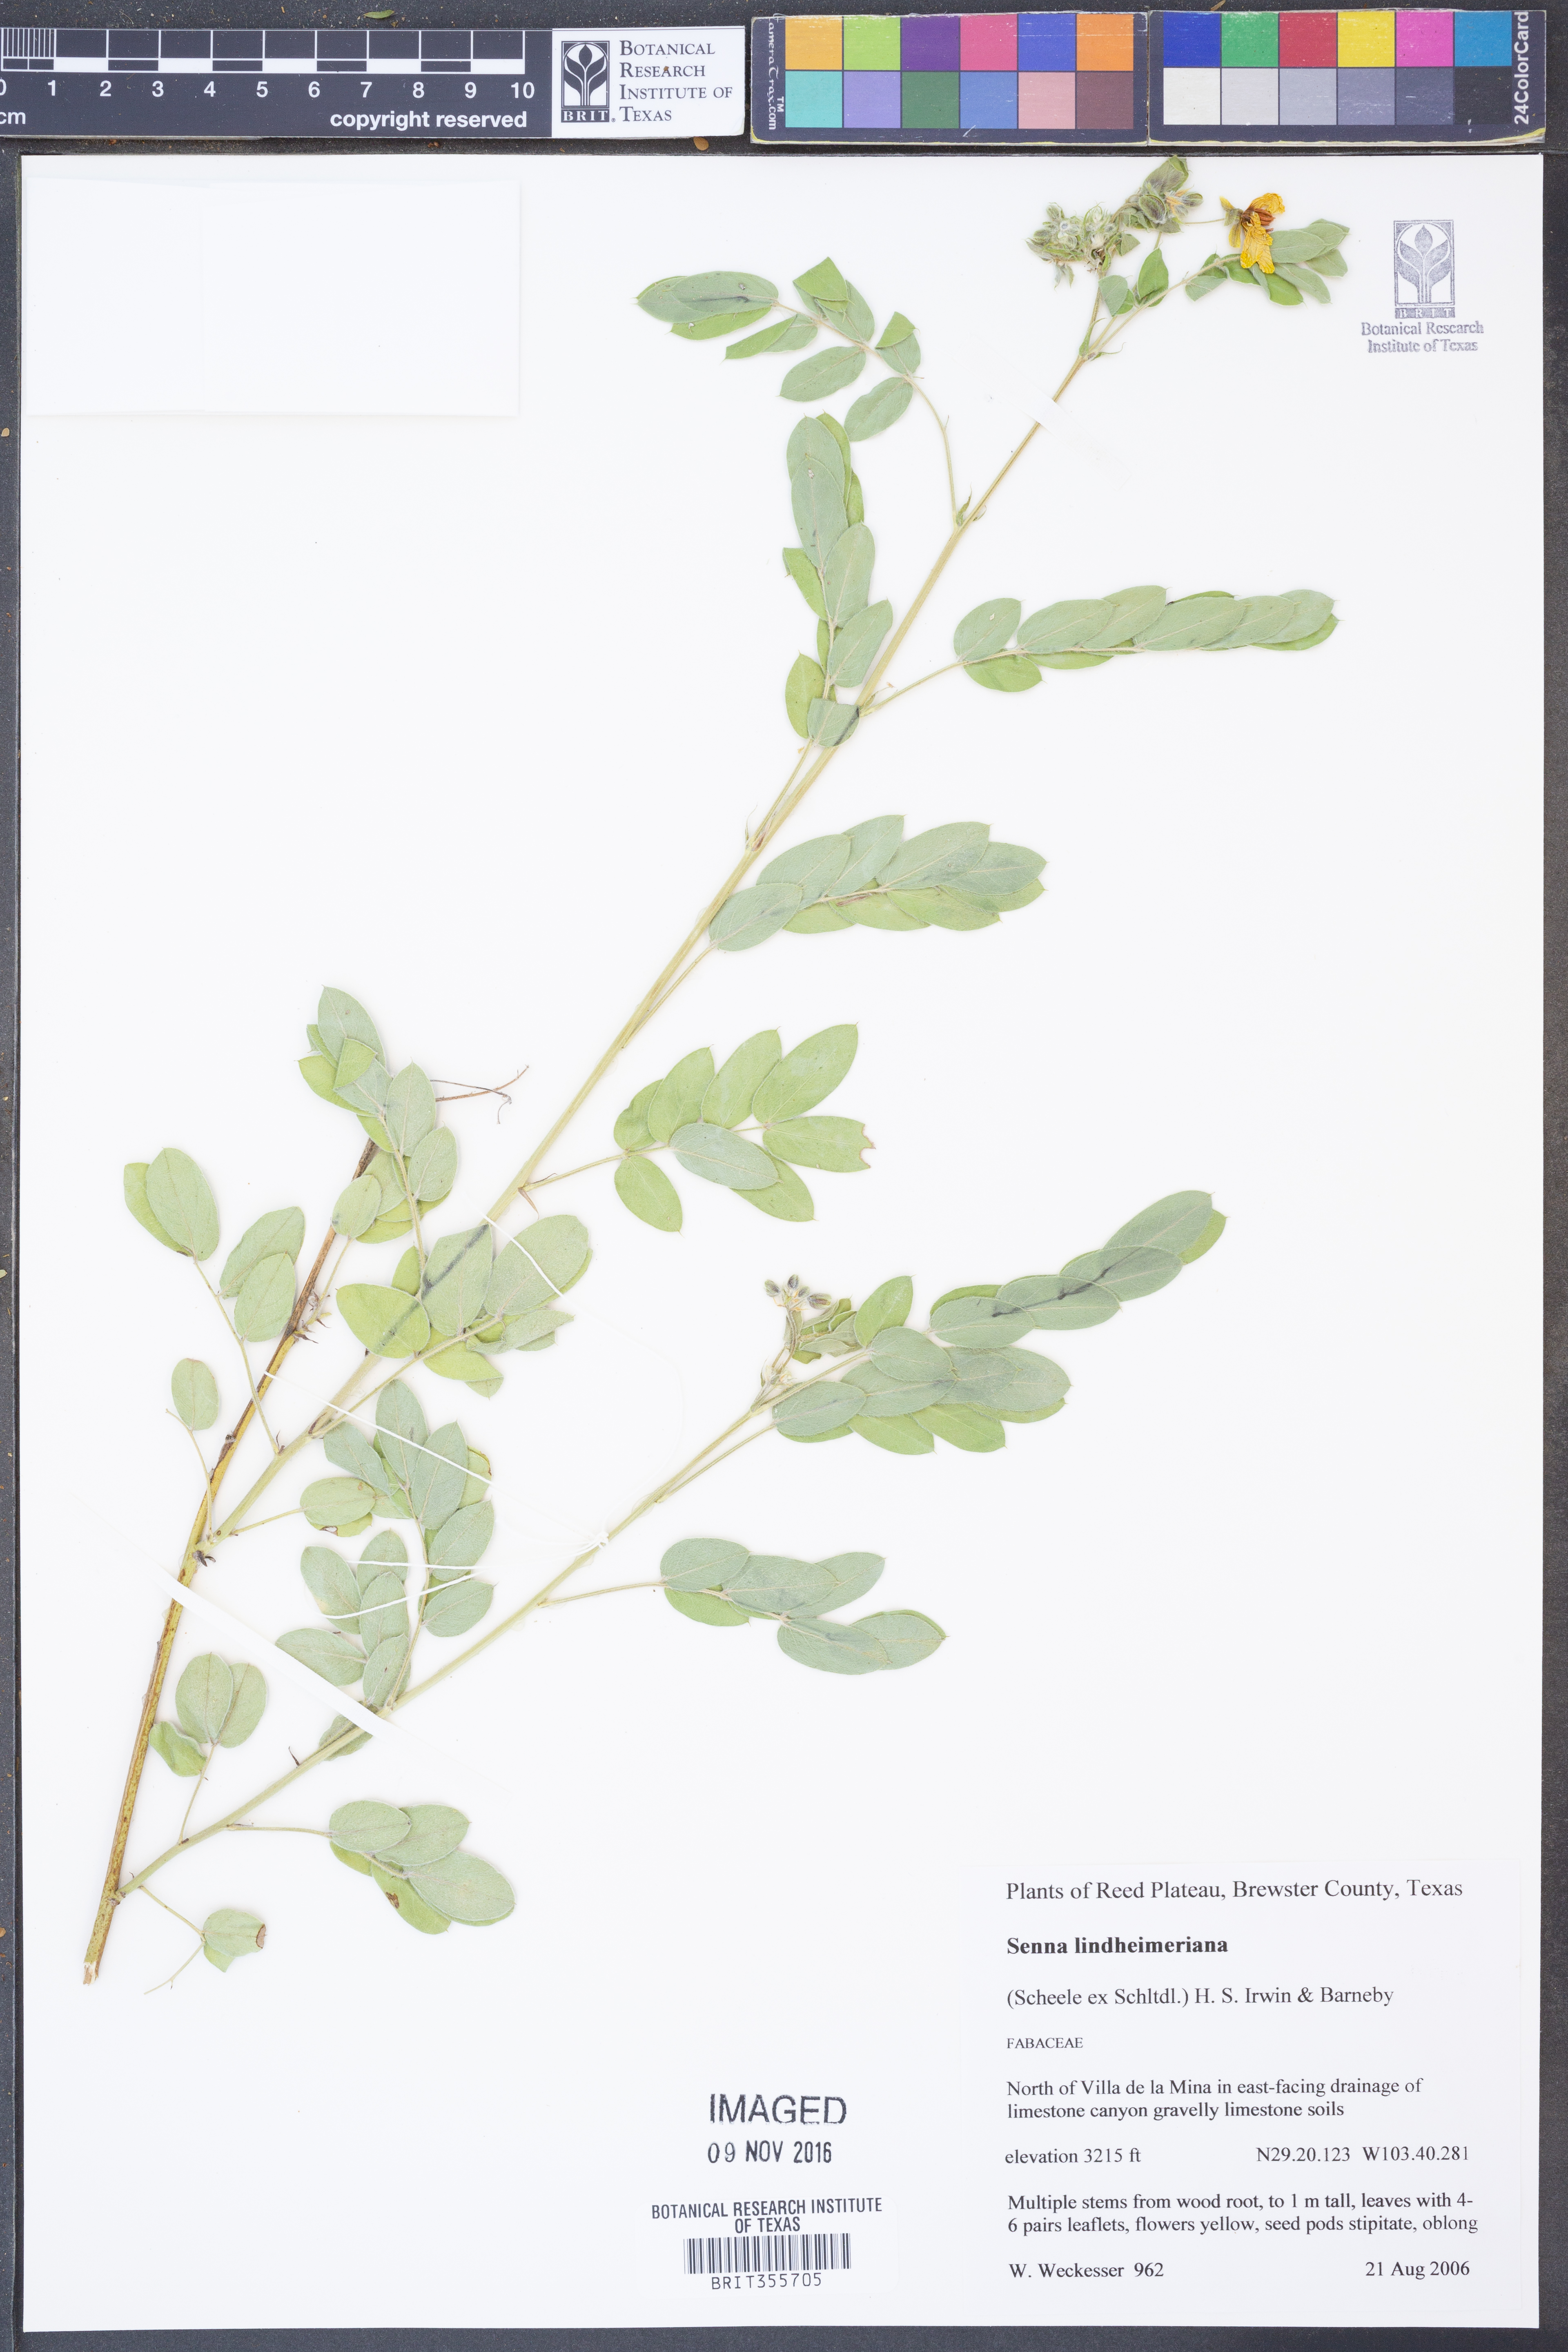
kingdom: Plantae
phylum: Tracheophyta
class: Magnoliopsida
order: Fabales
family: Fabaceae
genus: Senna
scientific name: Senna lindheimeriana
